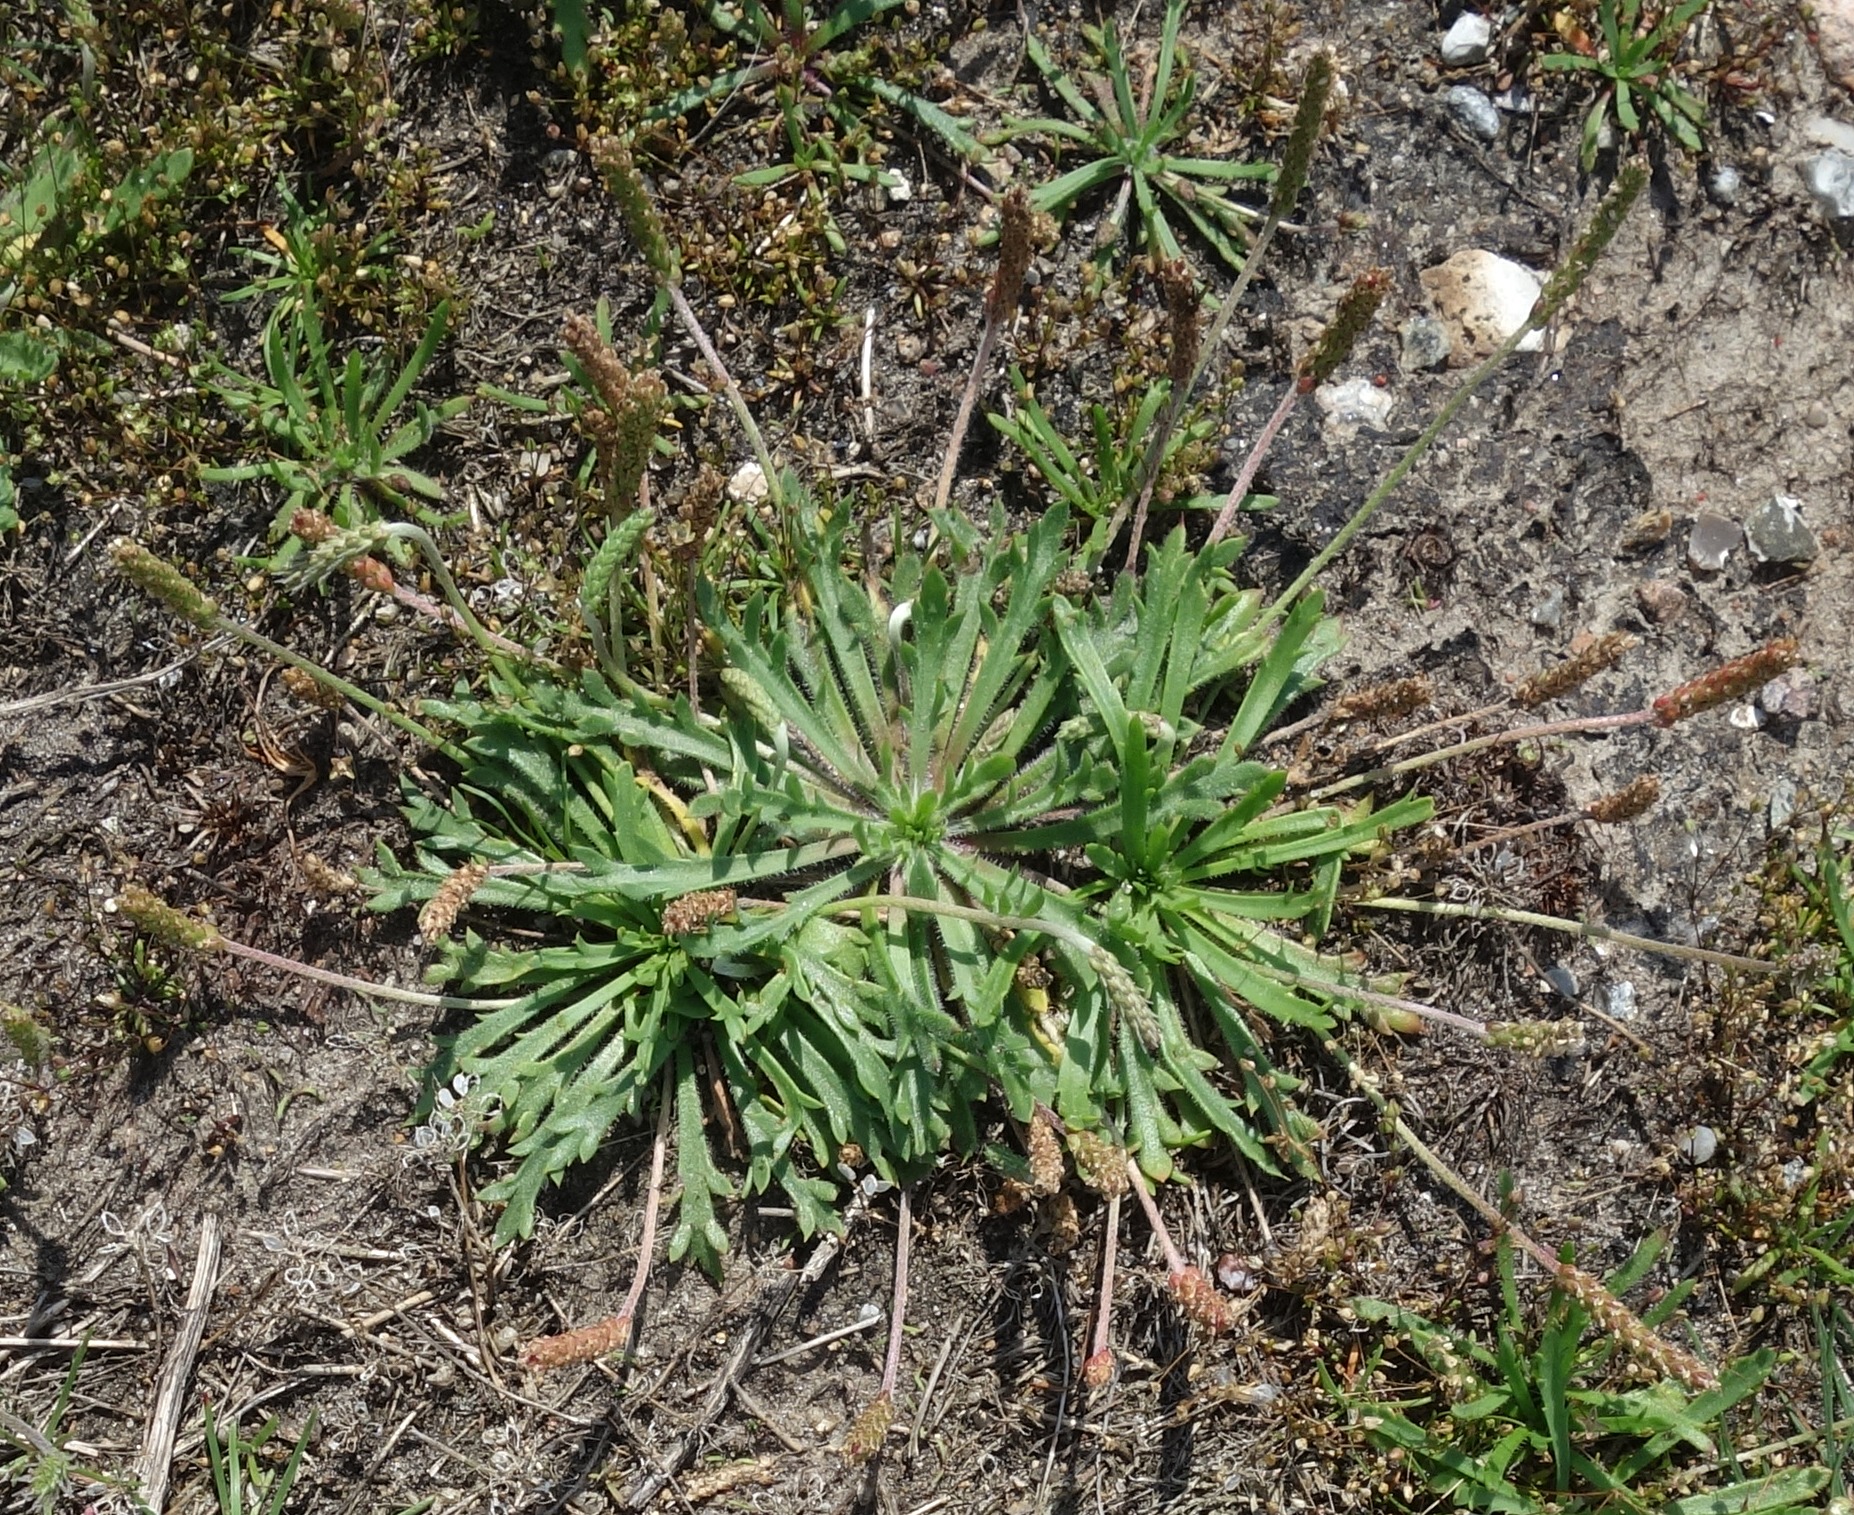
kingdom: Plantae
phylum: Tracheophyta
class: Magnoliopsida
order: Lamiales
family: Plantaginaceae
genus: Plantago
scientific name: Plantago coronopus
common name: Fliget vejbred
